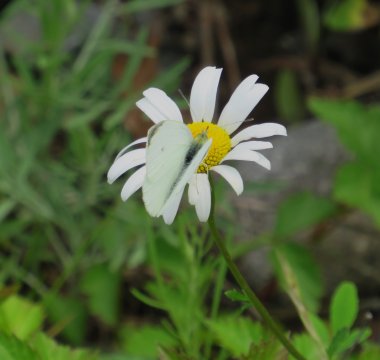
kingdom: Animalia
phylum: Arthropoda
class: Insecta
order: Lepidoptera
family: Pieridae
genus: Pieris
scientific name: Pieris rapae
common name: Cabbage White
